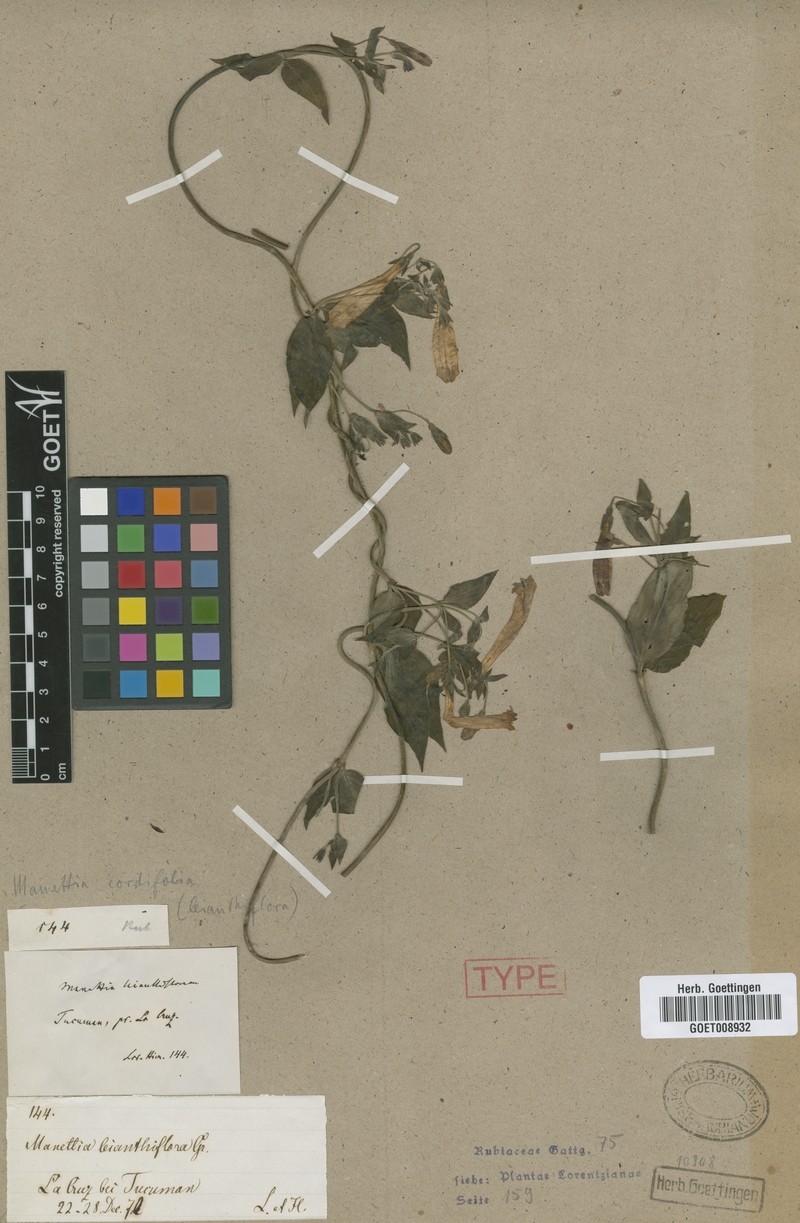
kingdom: Plantae
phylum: Tracheophyta
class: Magnoliopsida
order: Gentianales
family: Rubiaceae
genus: Manettia
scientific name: Manettia cordifolia
